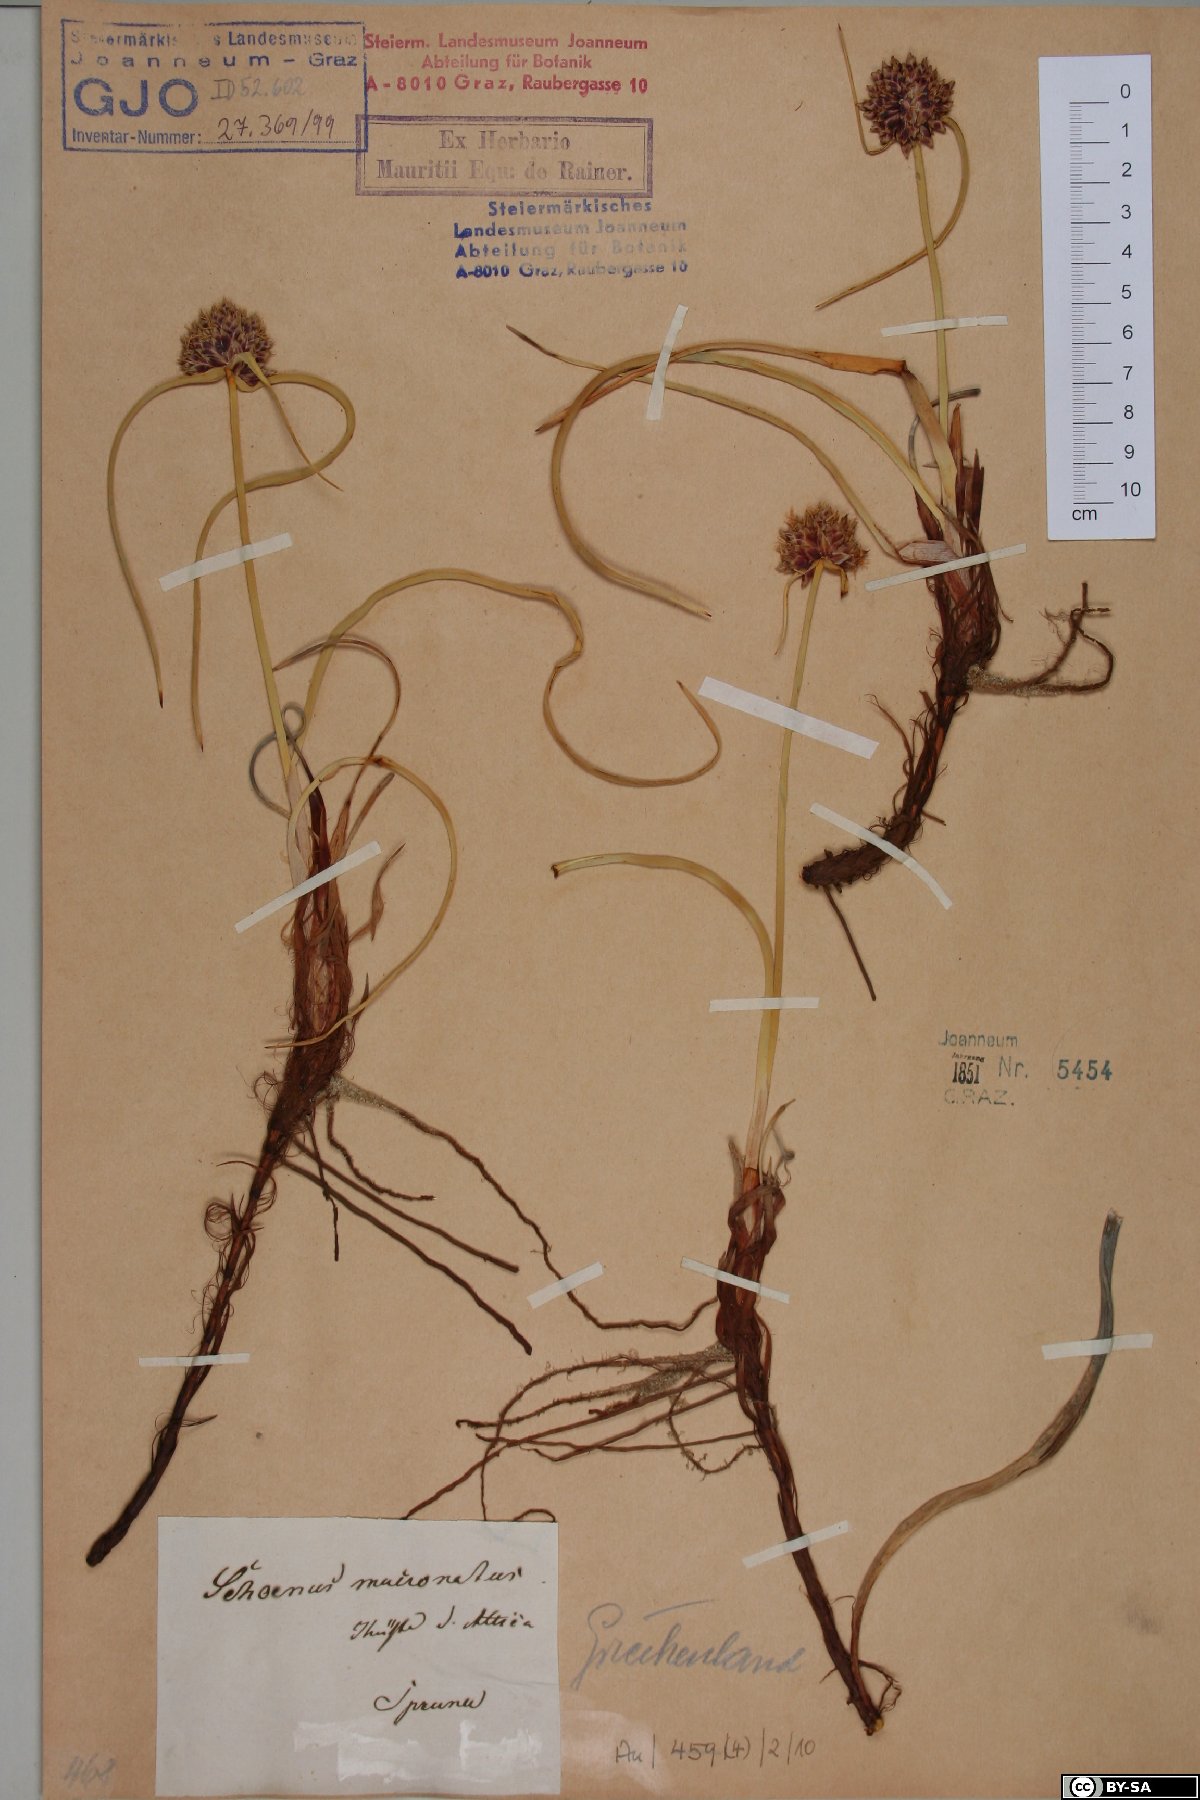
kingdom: Plantae
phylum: Tracheophyta
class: Liliopsida
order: Poales
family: Cyperaceae
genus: Cyperus
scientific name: Cyperus capitatus
